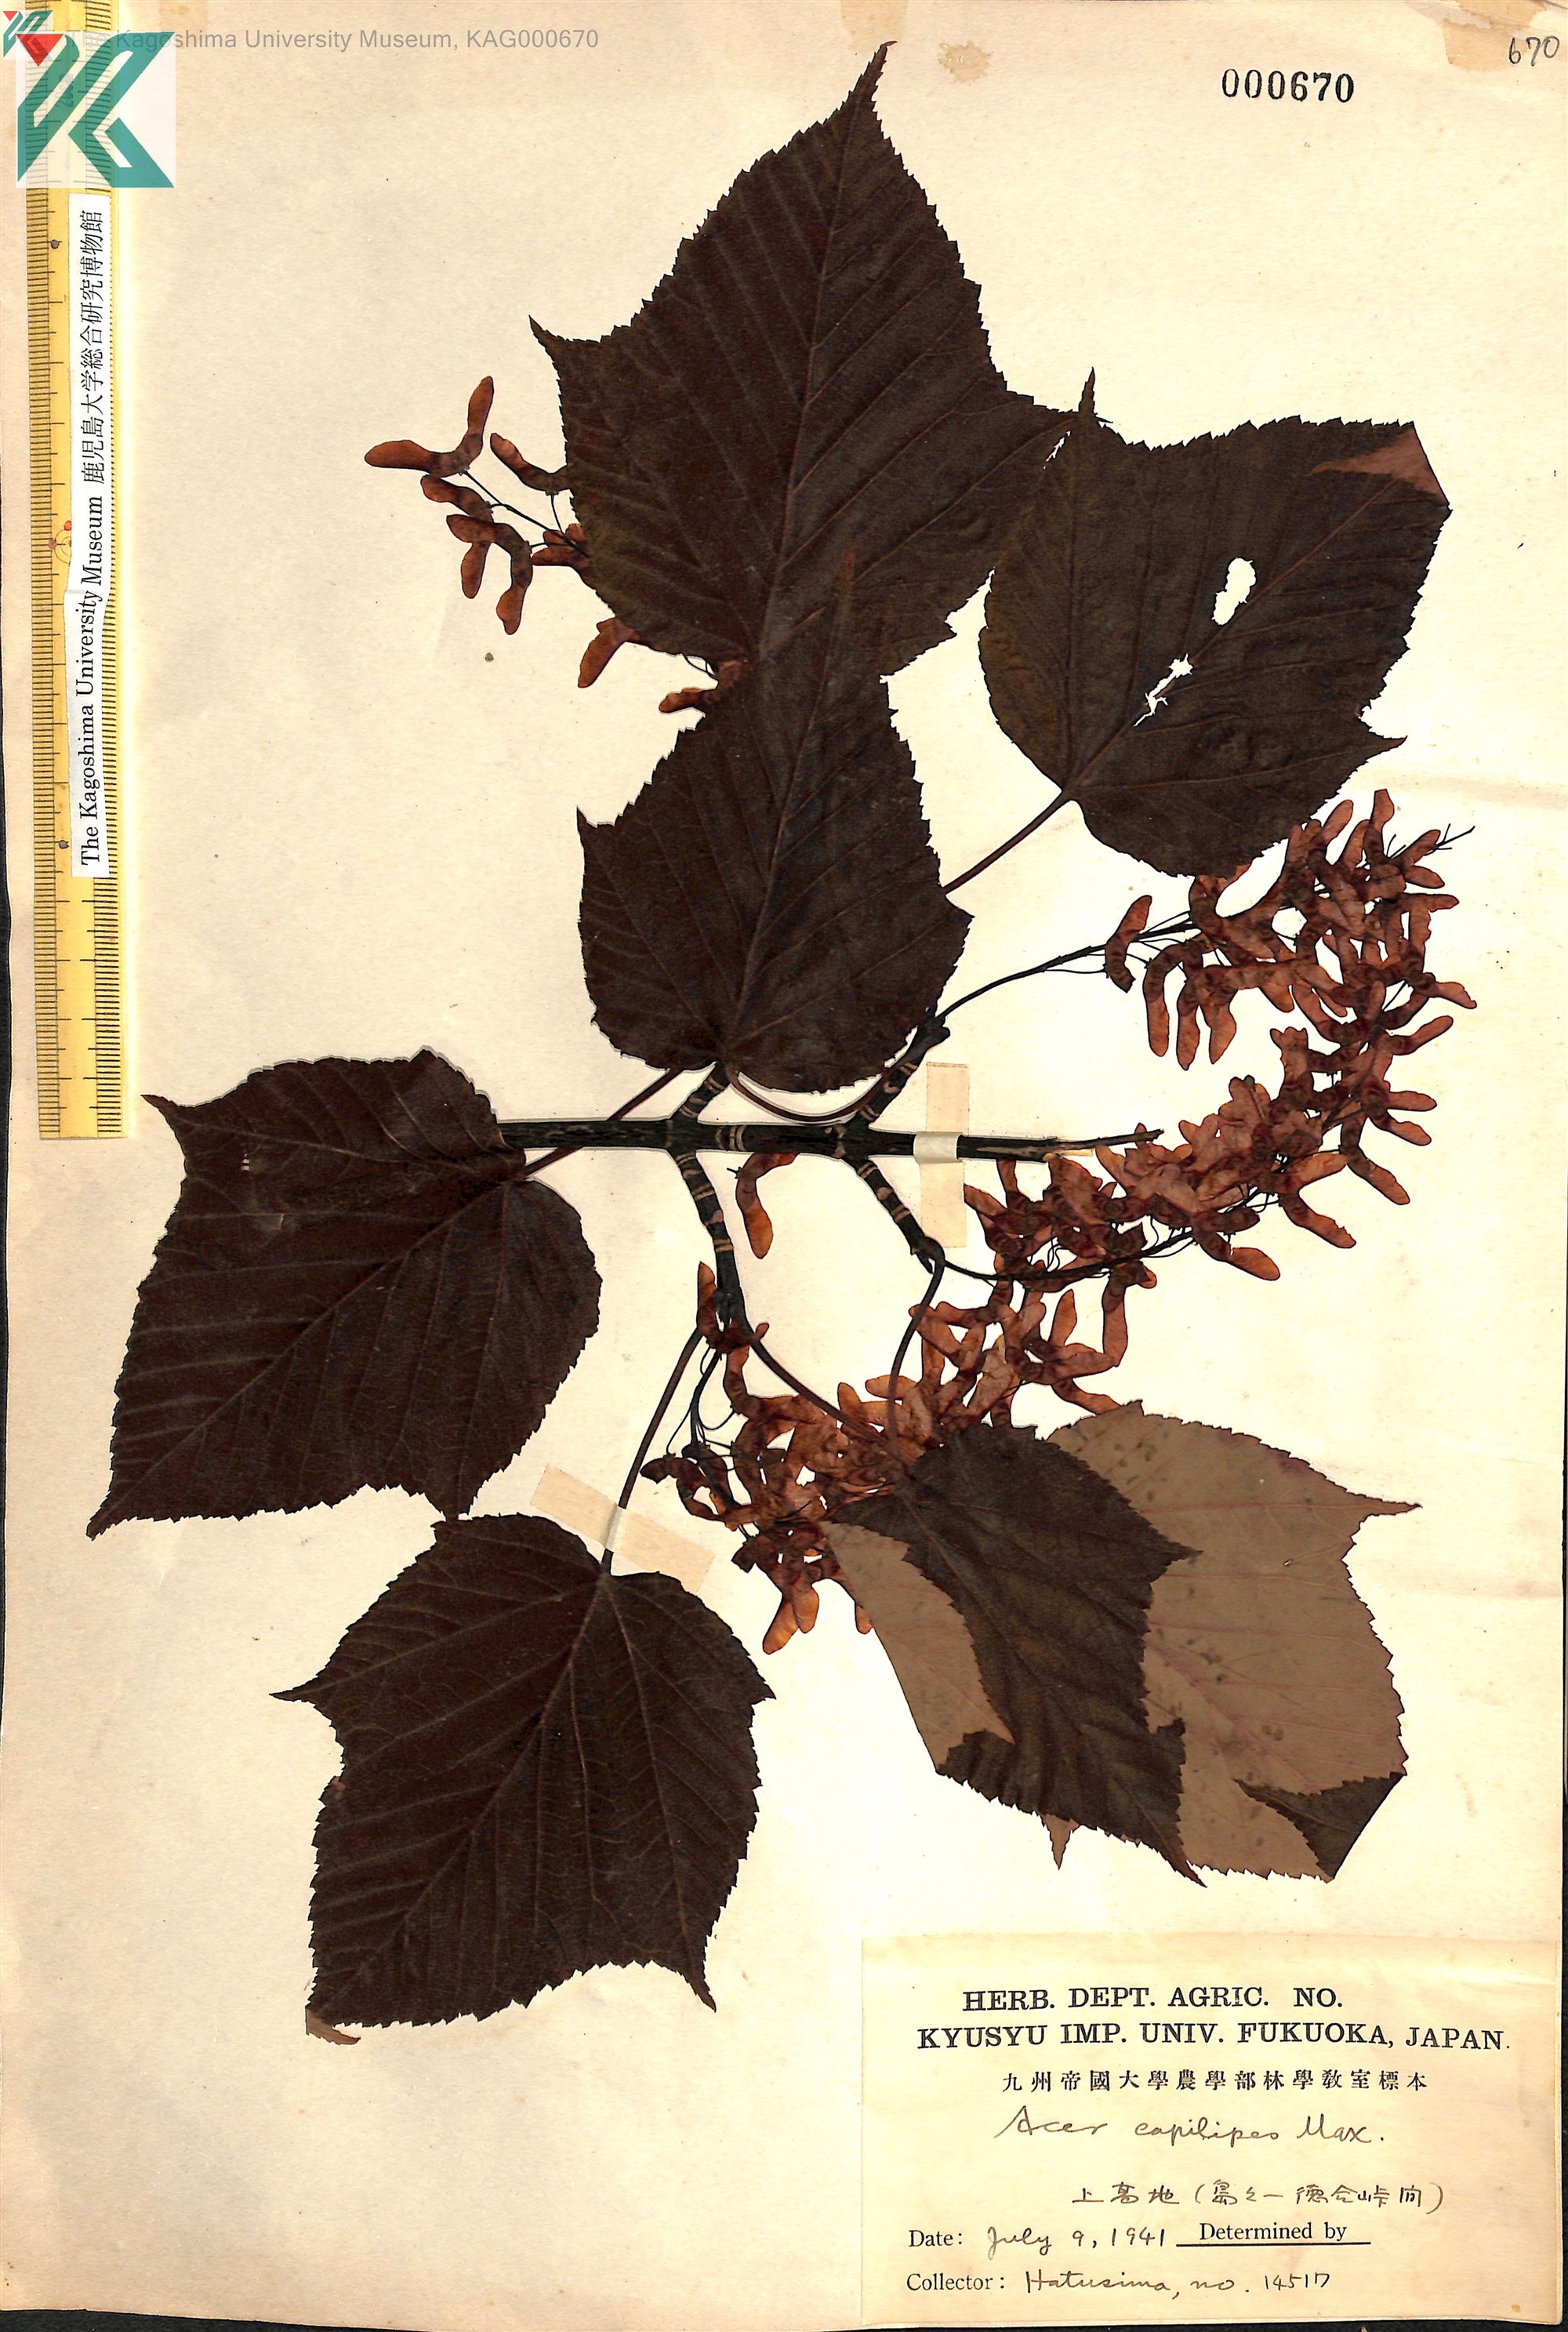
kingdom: Plantae
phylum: Tracheophyta
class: Magnoliopsida
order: Sapindales
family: Sapindaceae
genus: Acer
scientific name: Acer capillipes
